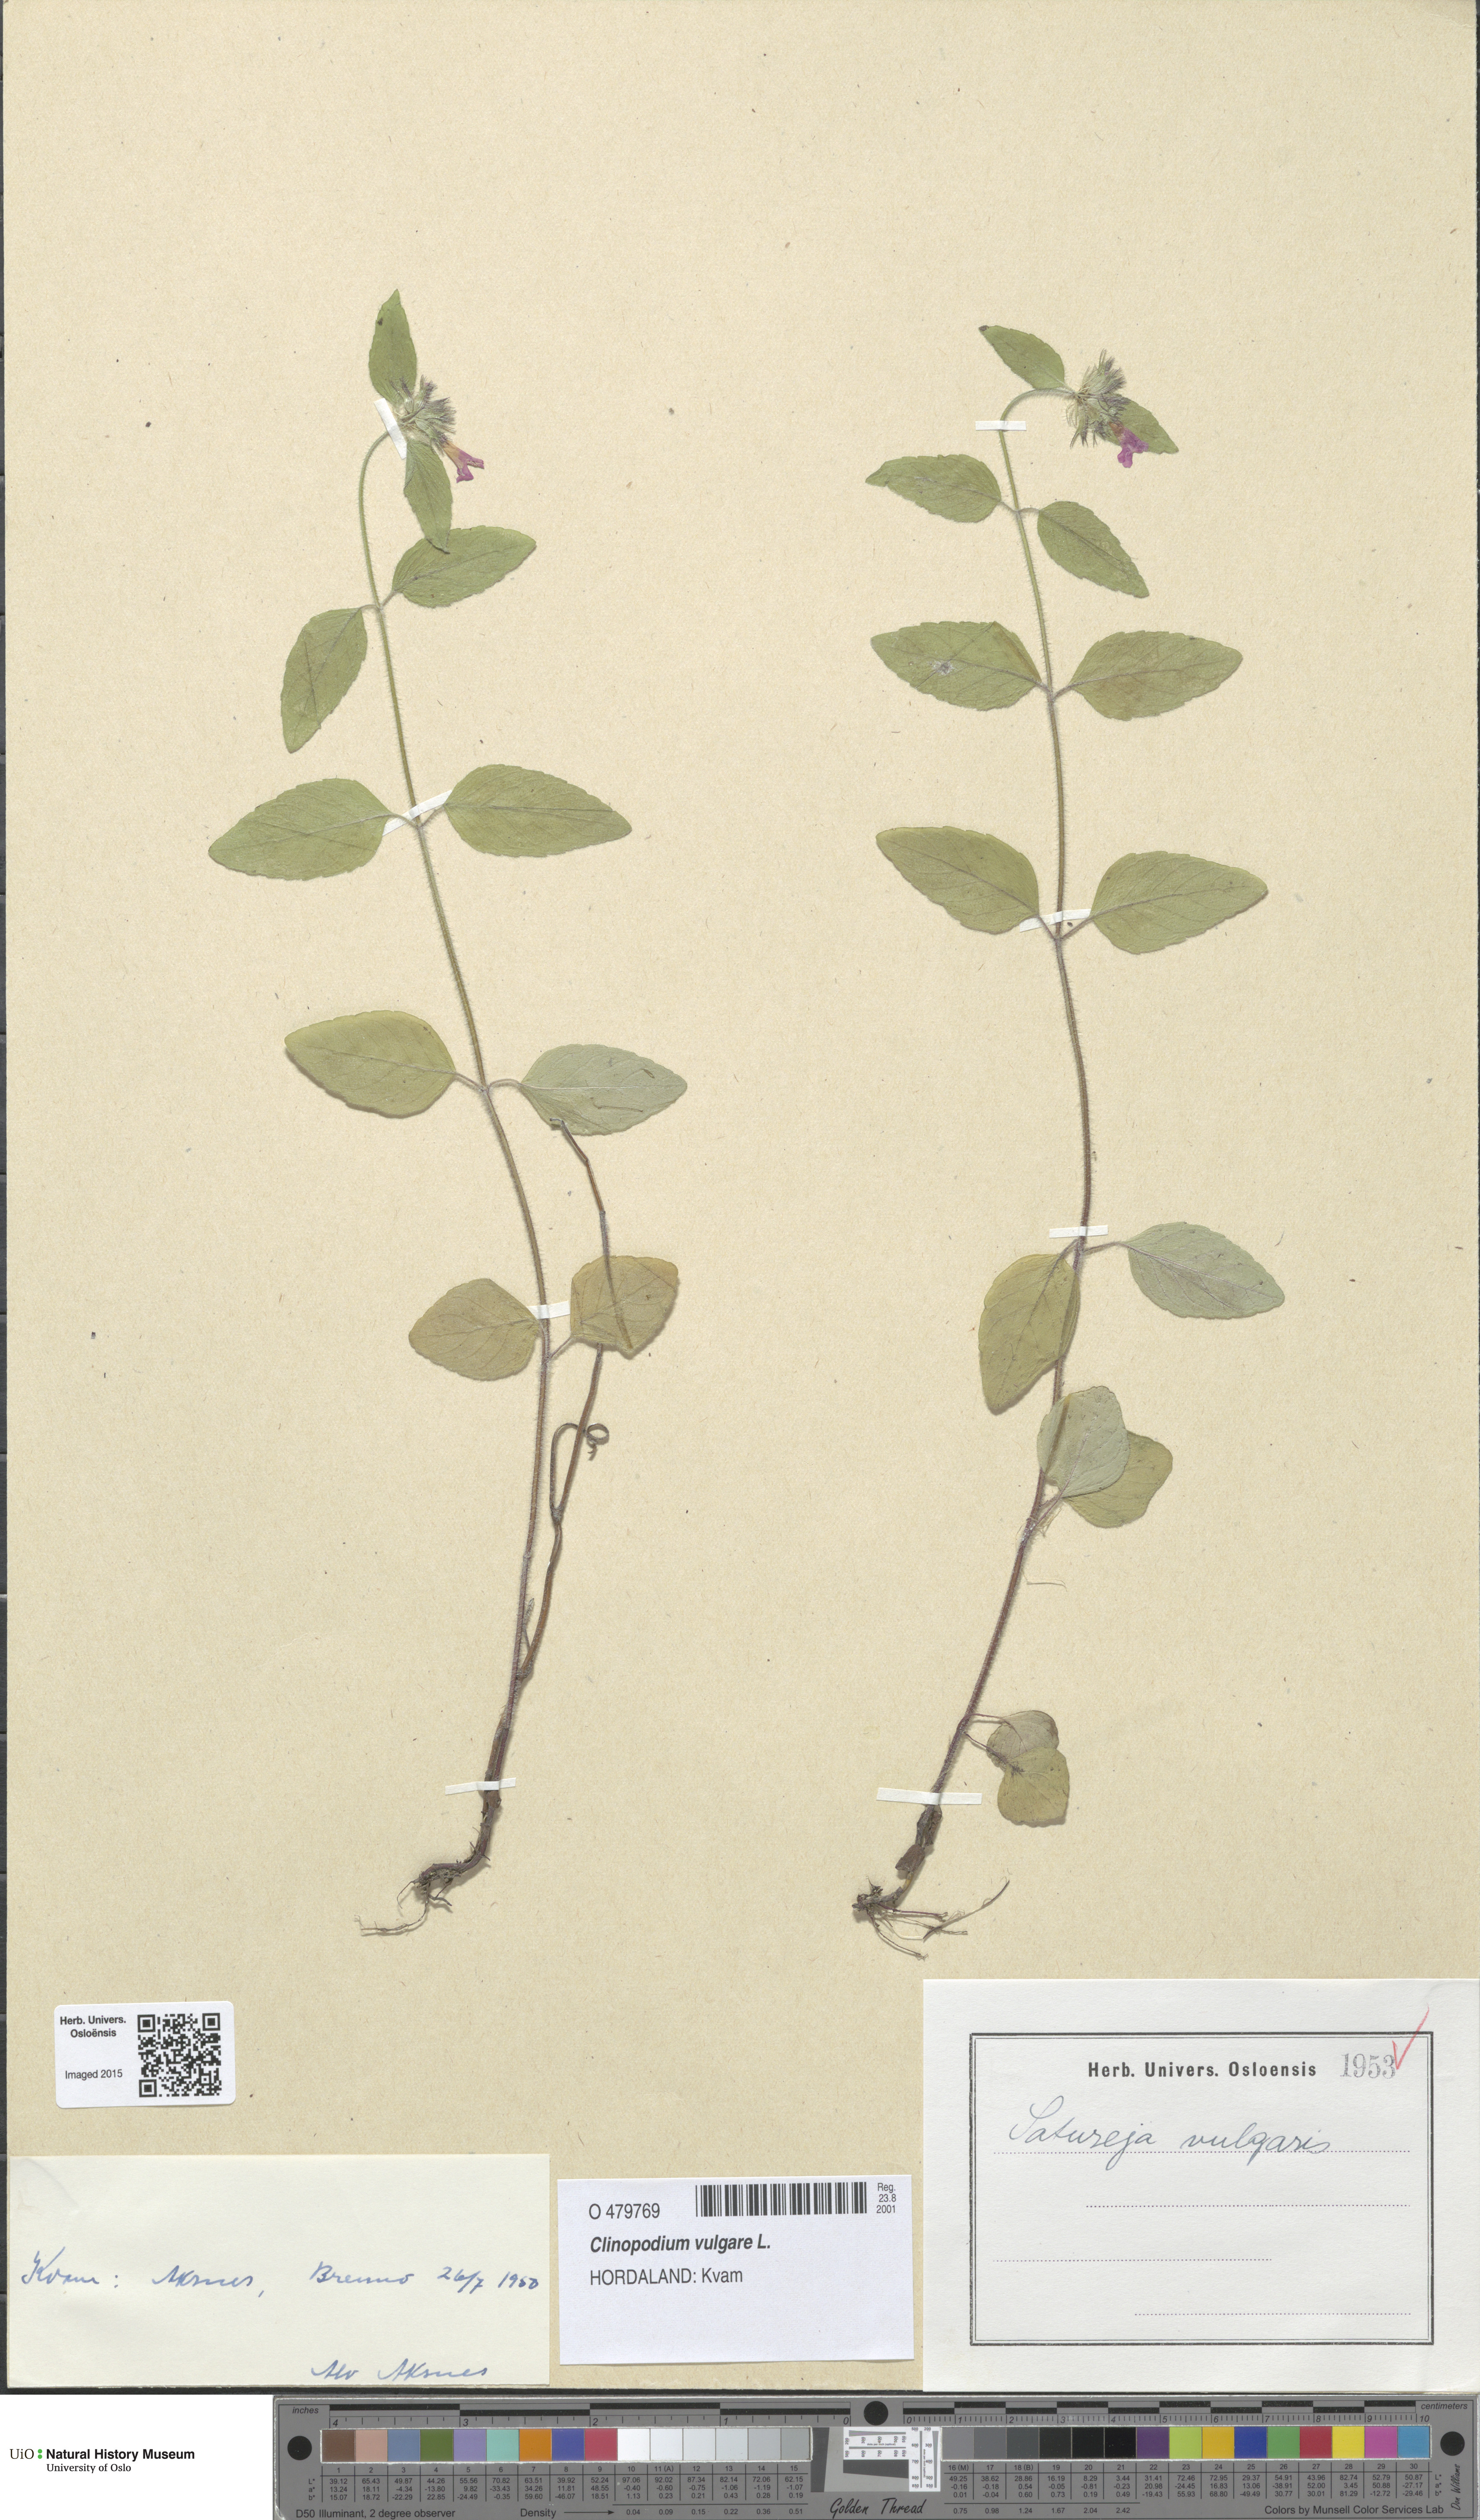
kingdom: Plantae
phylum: Tracheophyta
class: Magnoliopsida
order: Lamiales
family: Lamiaceae
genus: Clinopodium
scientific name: Clinopodium vulgare
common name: Wild basil
